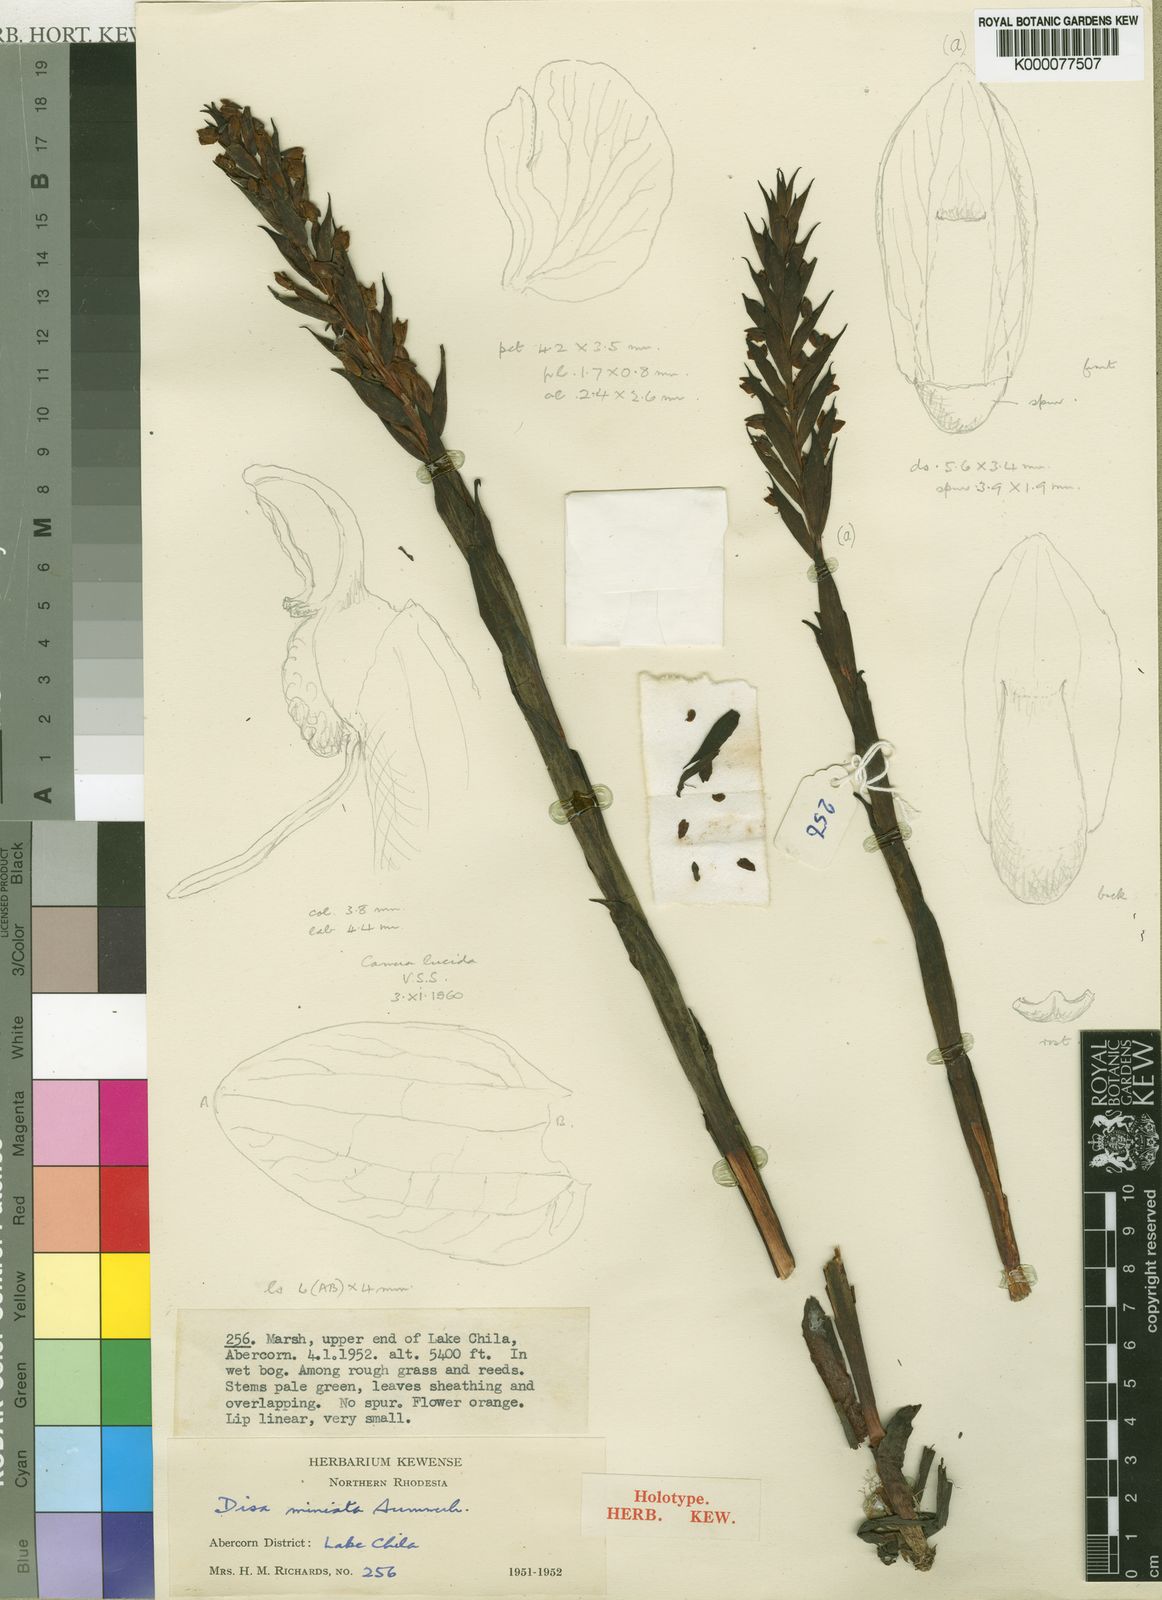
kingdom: Plantae
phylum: Tracheophyta
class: Liliopsida
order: Asparagales
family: Orchidaceae
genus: Disa
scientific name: Disa miniata
